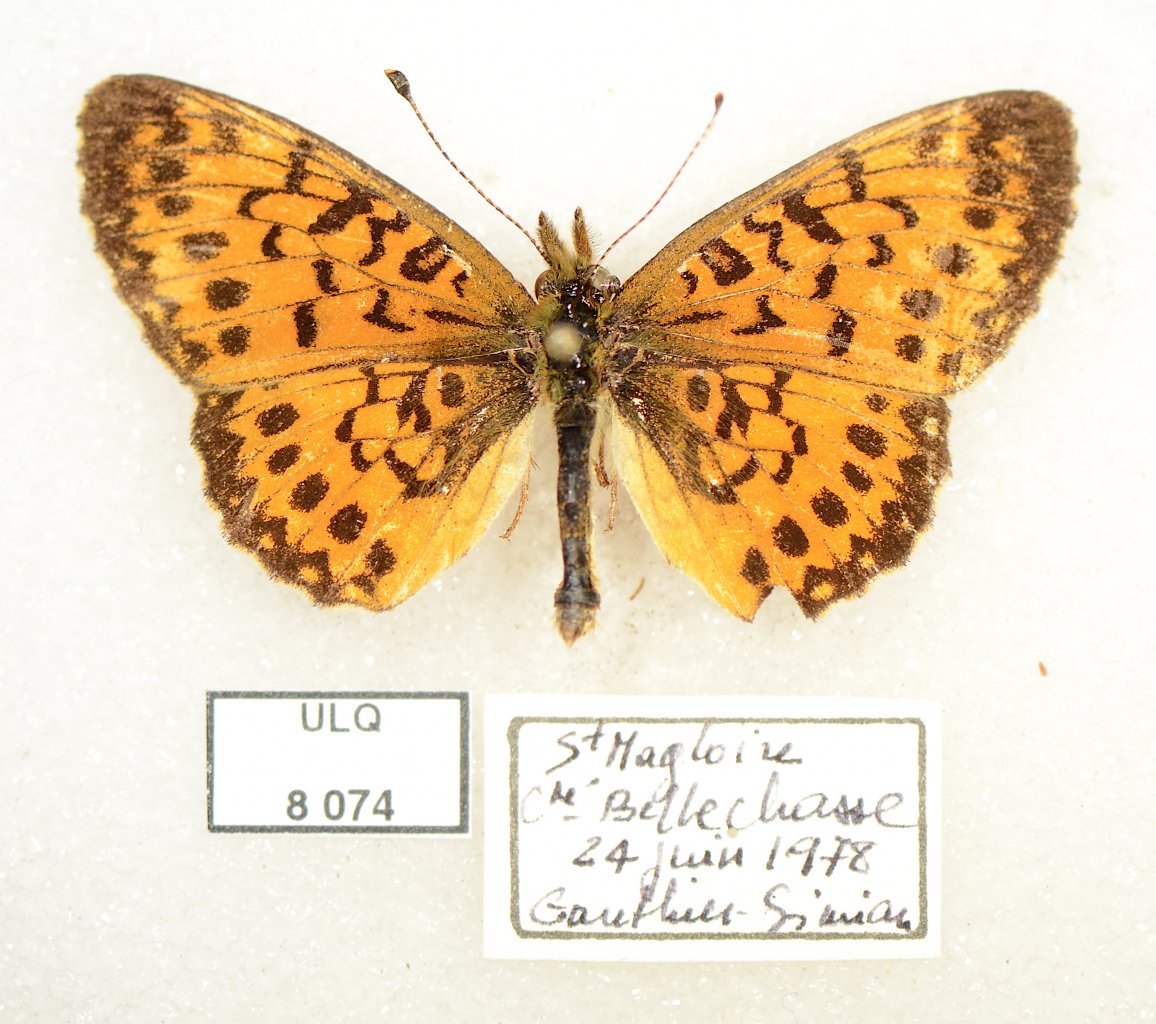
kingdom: Animalia
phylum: Arthropoda
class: Insecta
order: Lepidoptera
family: Nymphalidae
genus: Boloria
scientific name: Boloria selene
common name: Silver-bordered Fritillary
